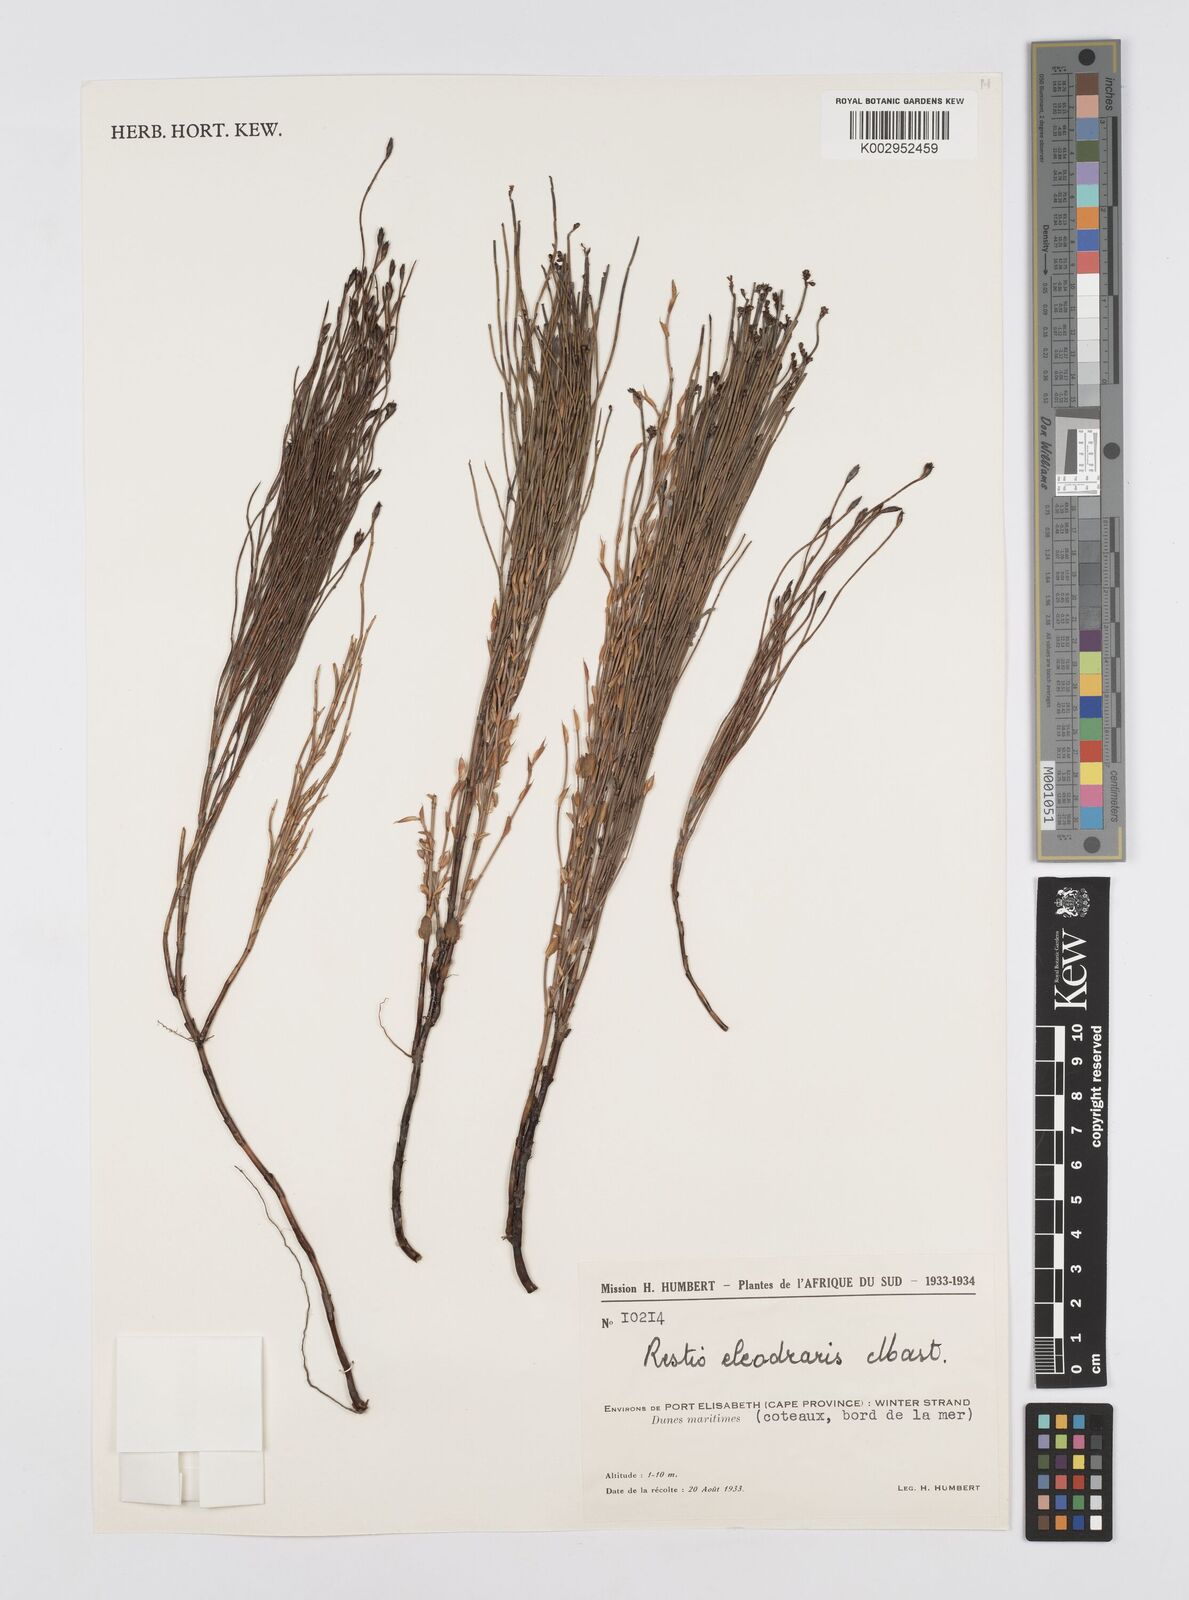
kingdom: Plantae
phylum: Tracheophyta
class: Liliopsida
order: Poales
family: Restionaceae
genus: Restio
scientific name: Restio eleocharis
